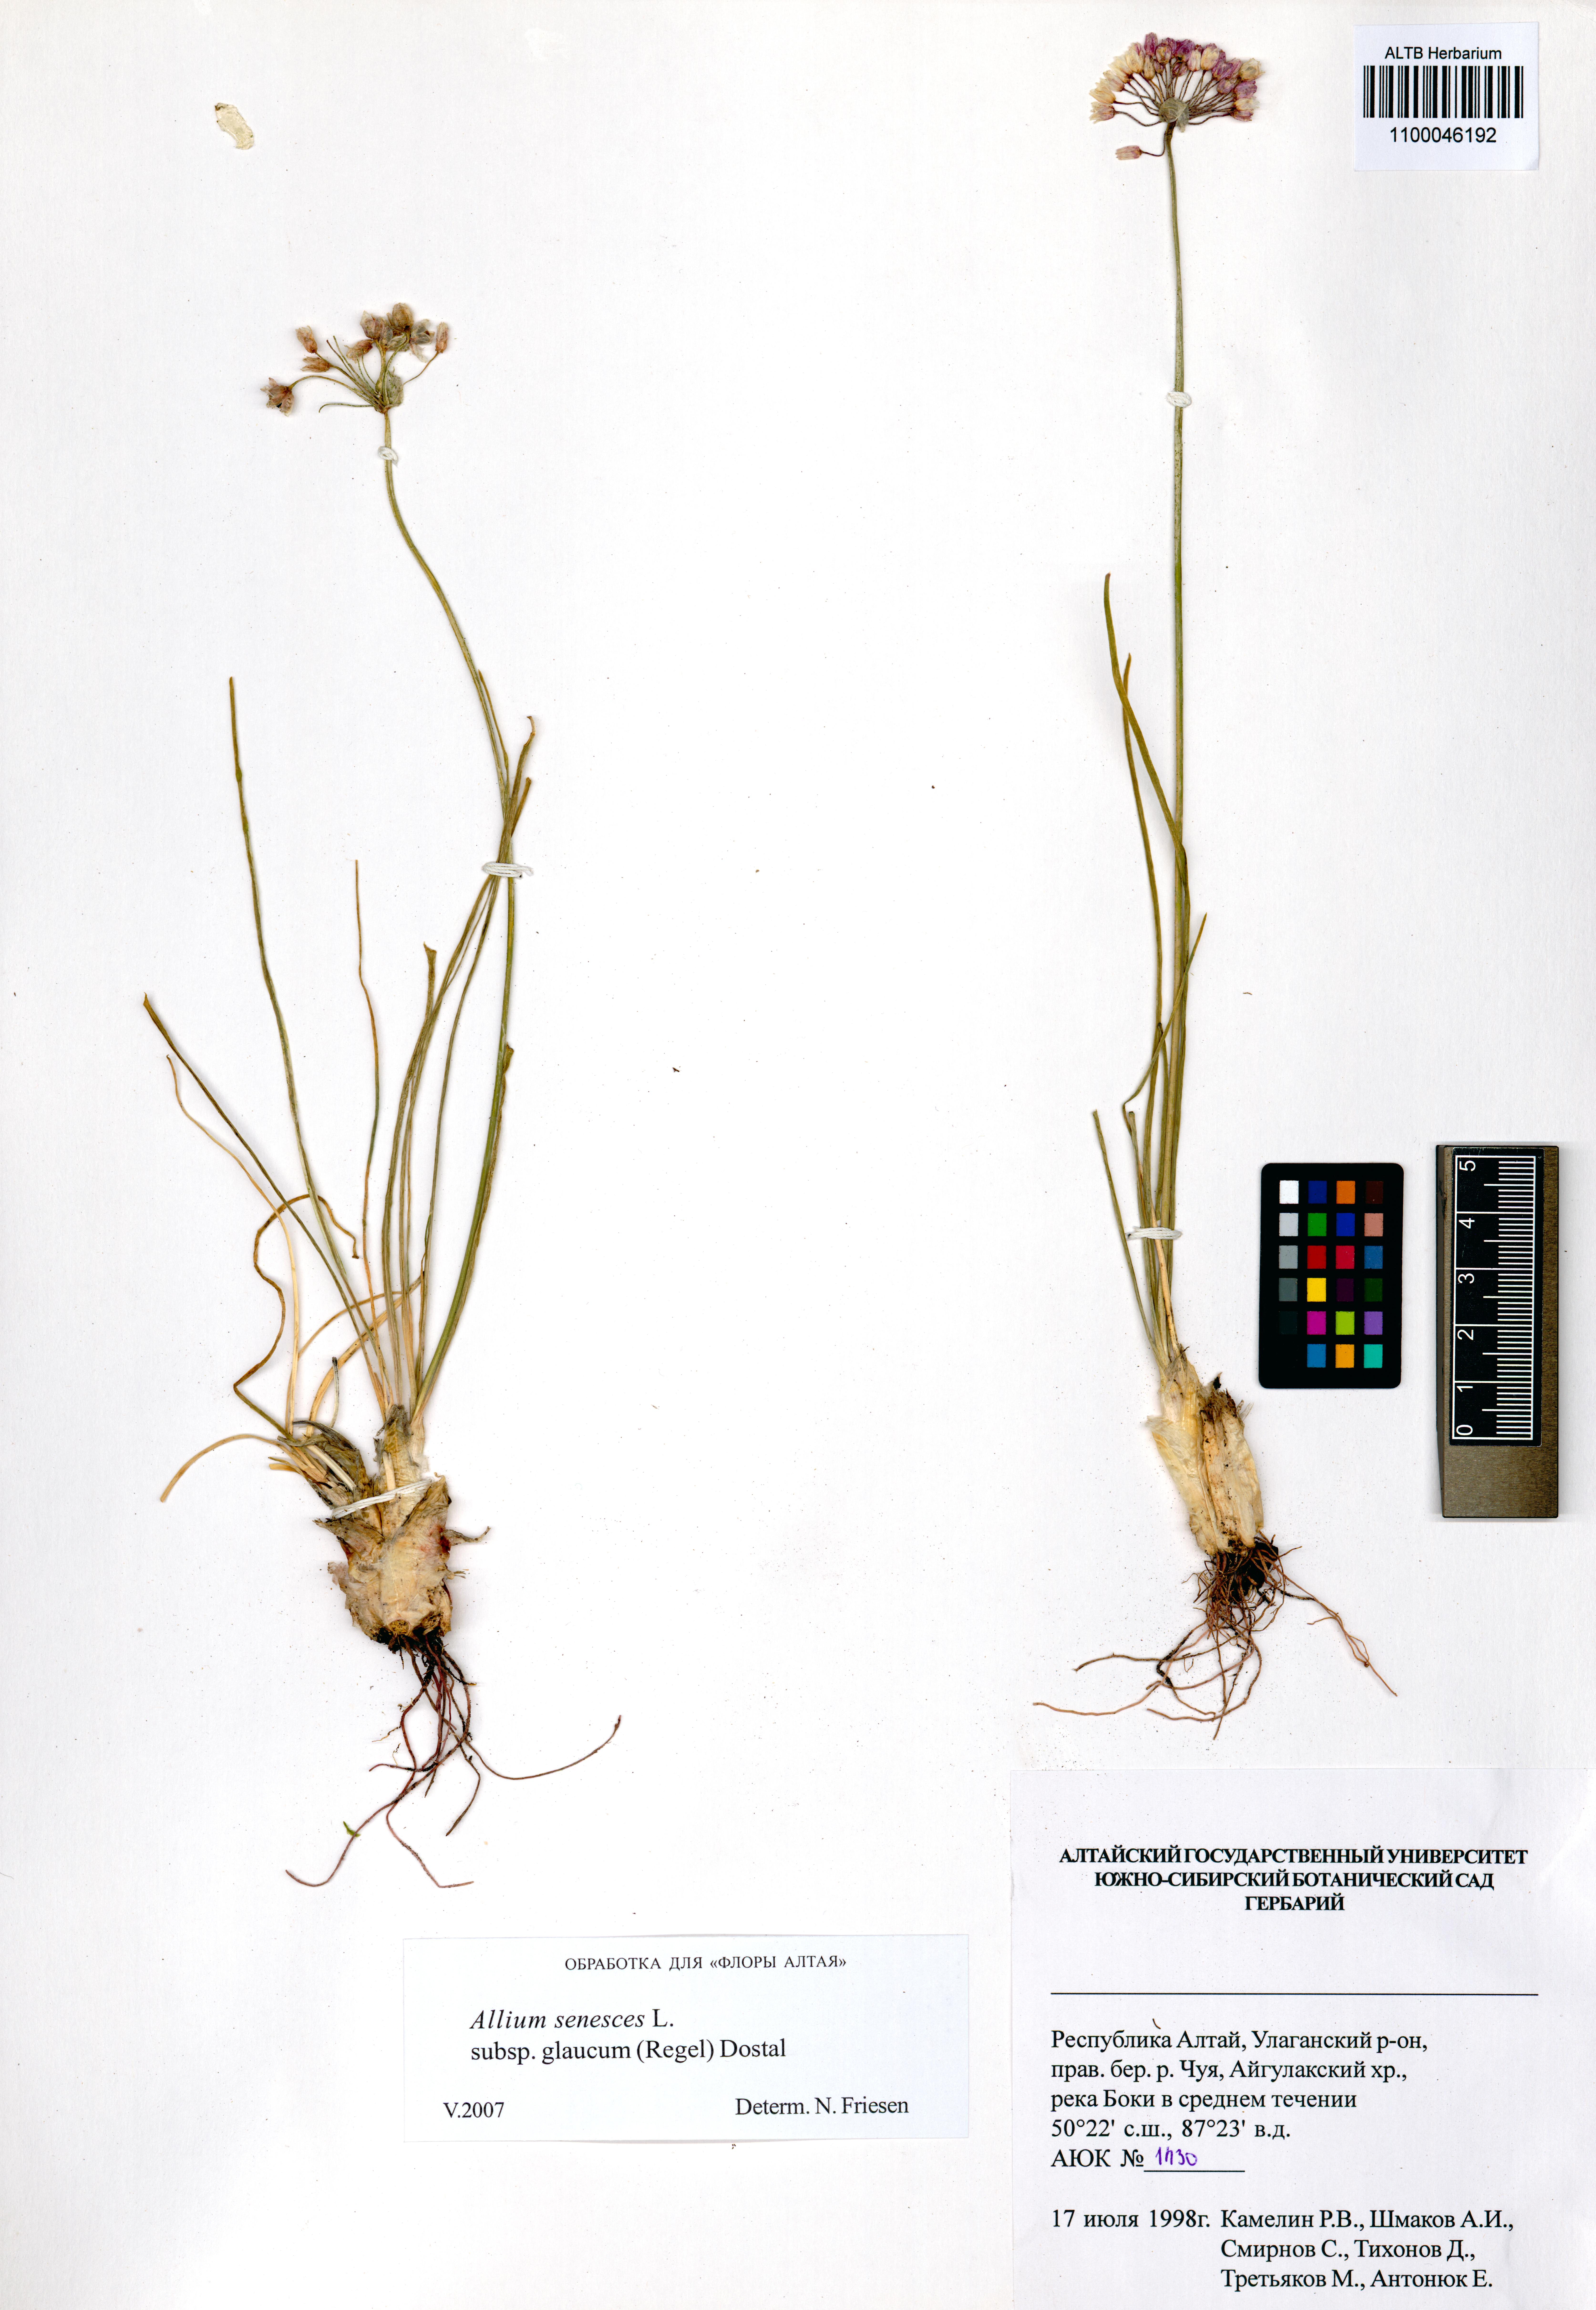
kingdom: Plantae
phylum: Tracheophyta
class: Liliopsida
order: Asparagales
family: Amaryllidaceae
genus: Allium
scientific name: Allium senescens
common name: German garlic
